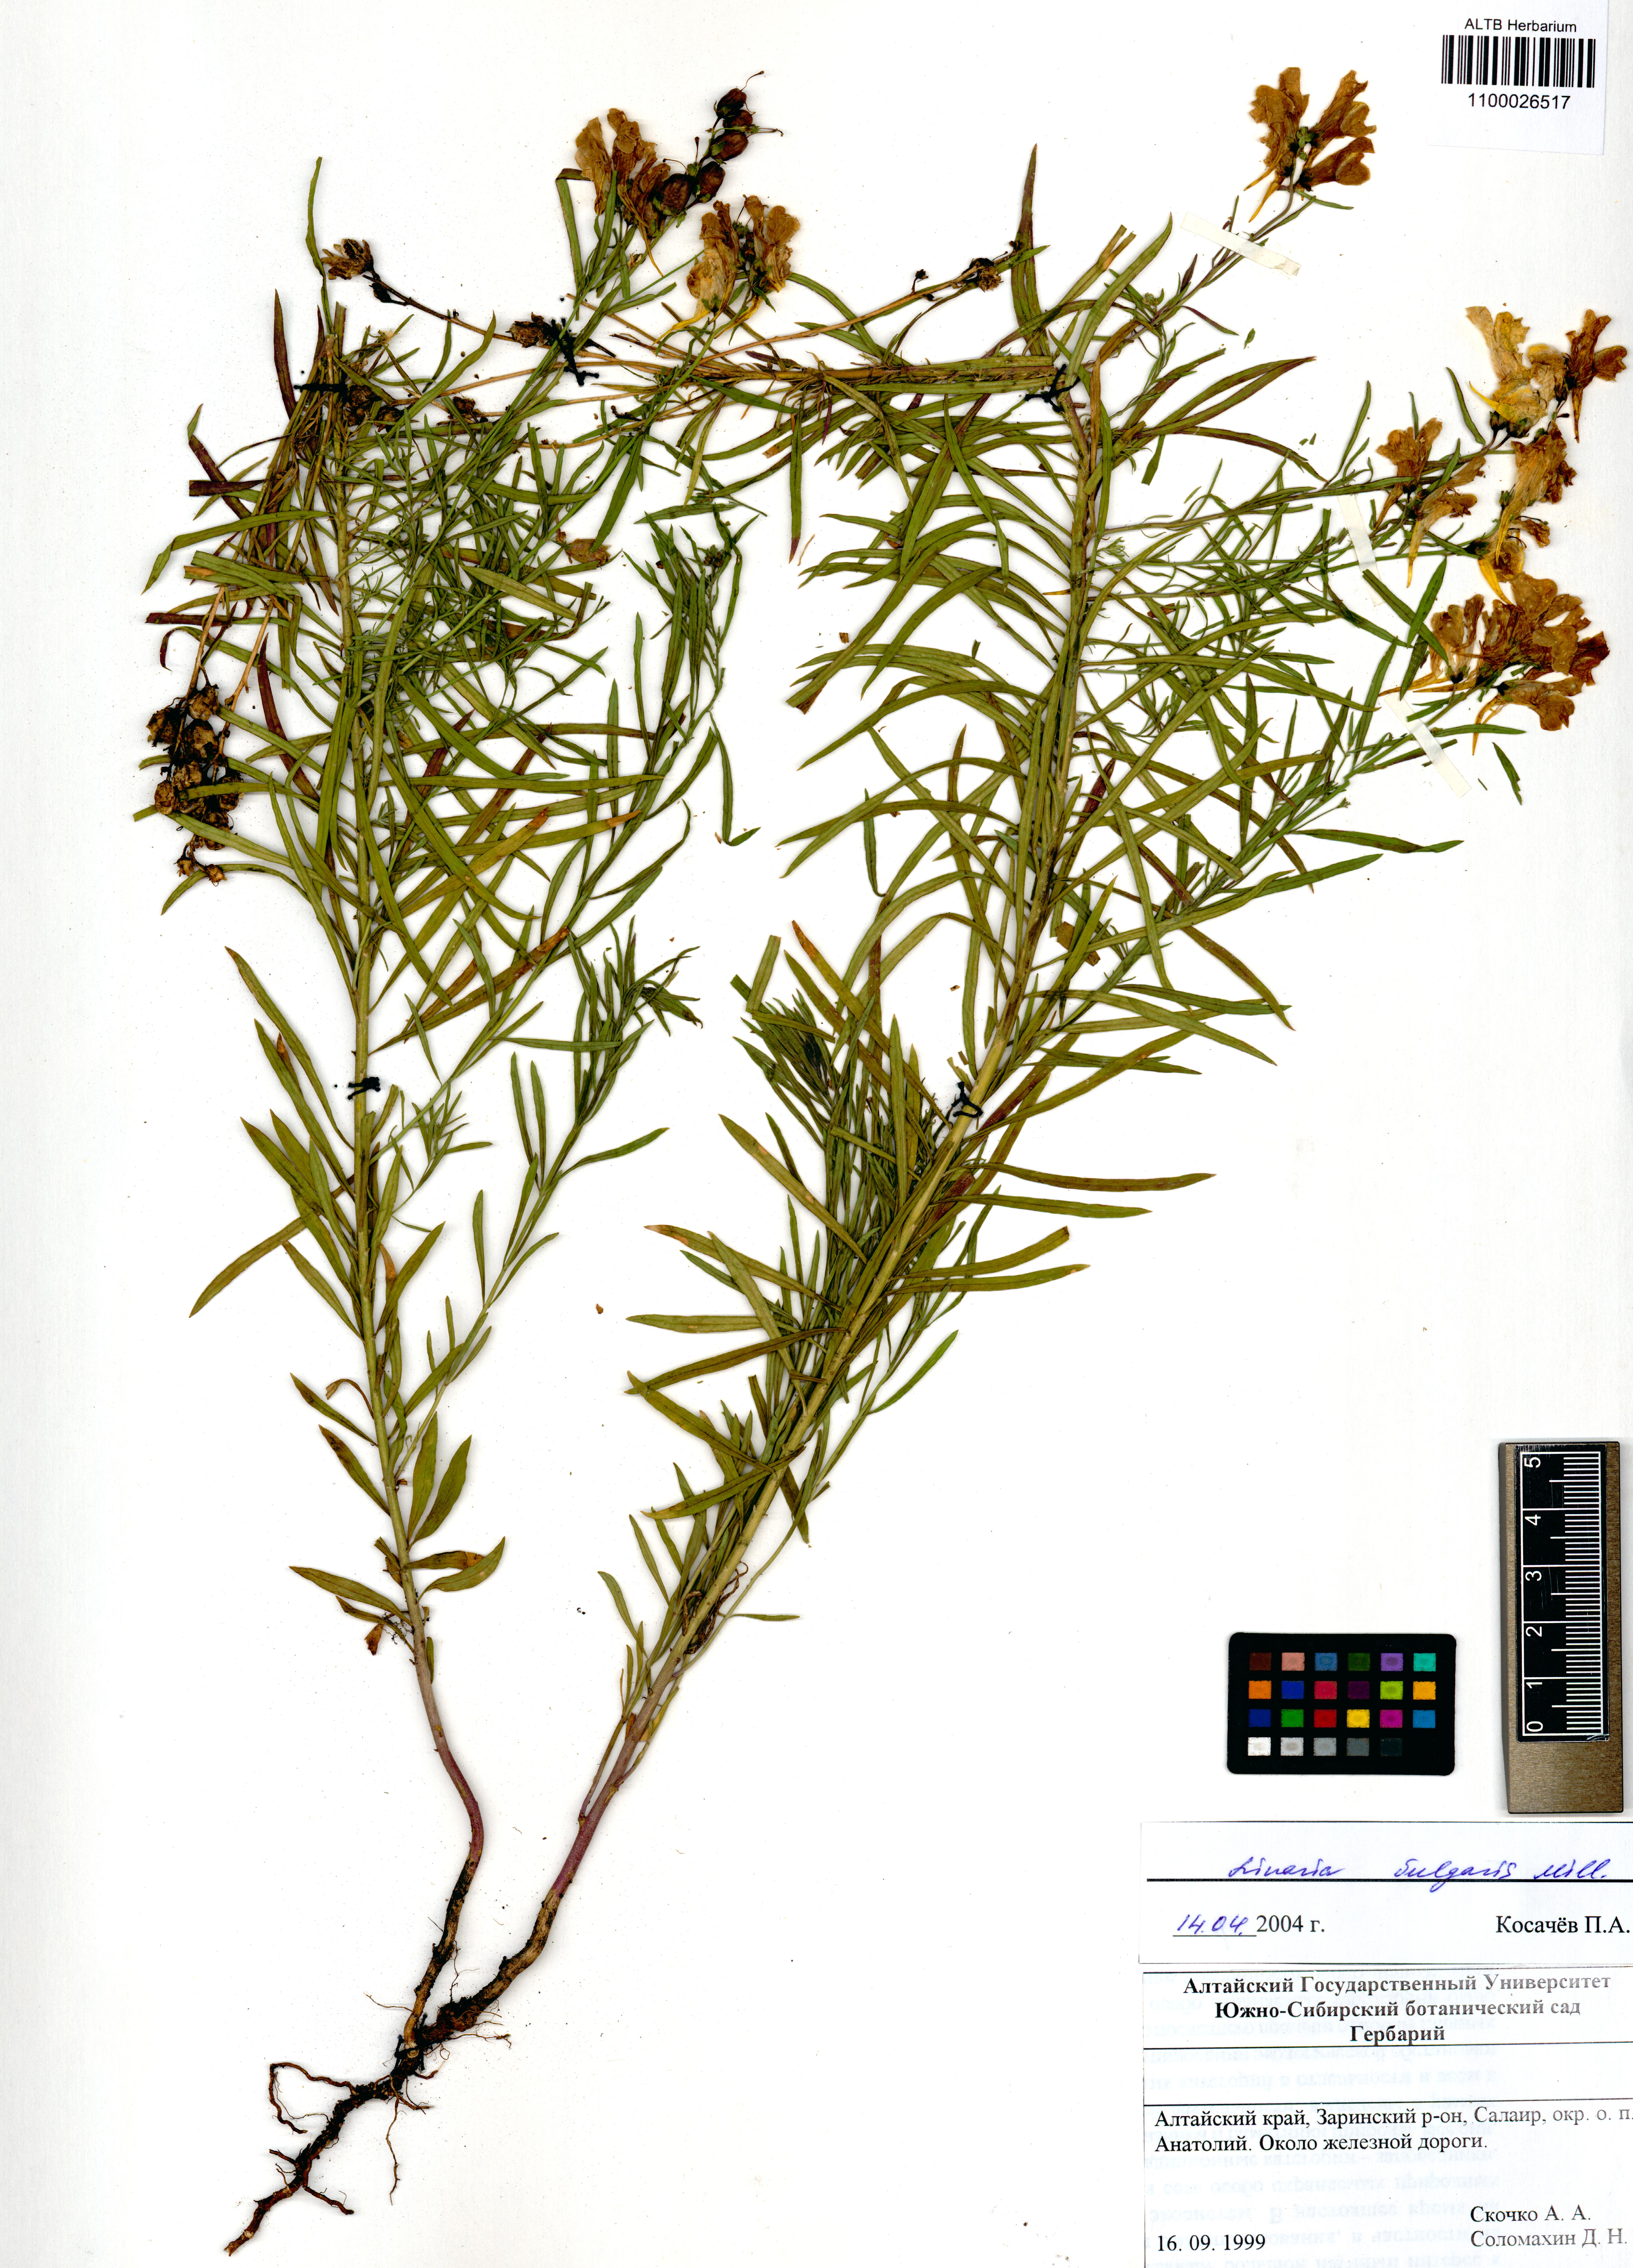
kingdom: Plantae
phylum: Tracheophyta
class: Magnoliopsida
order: Lamiales
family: Plantaginaceae
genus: Linaria
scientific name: Linaria vulgaris
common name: Butter and eggs
